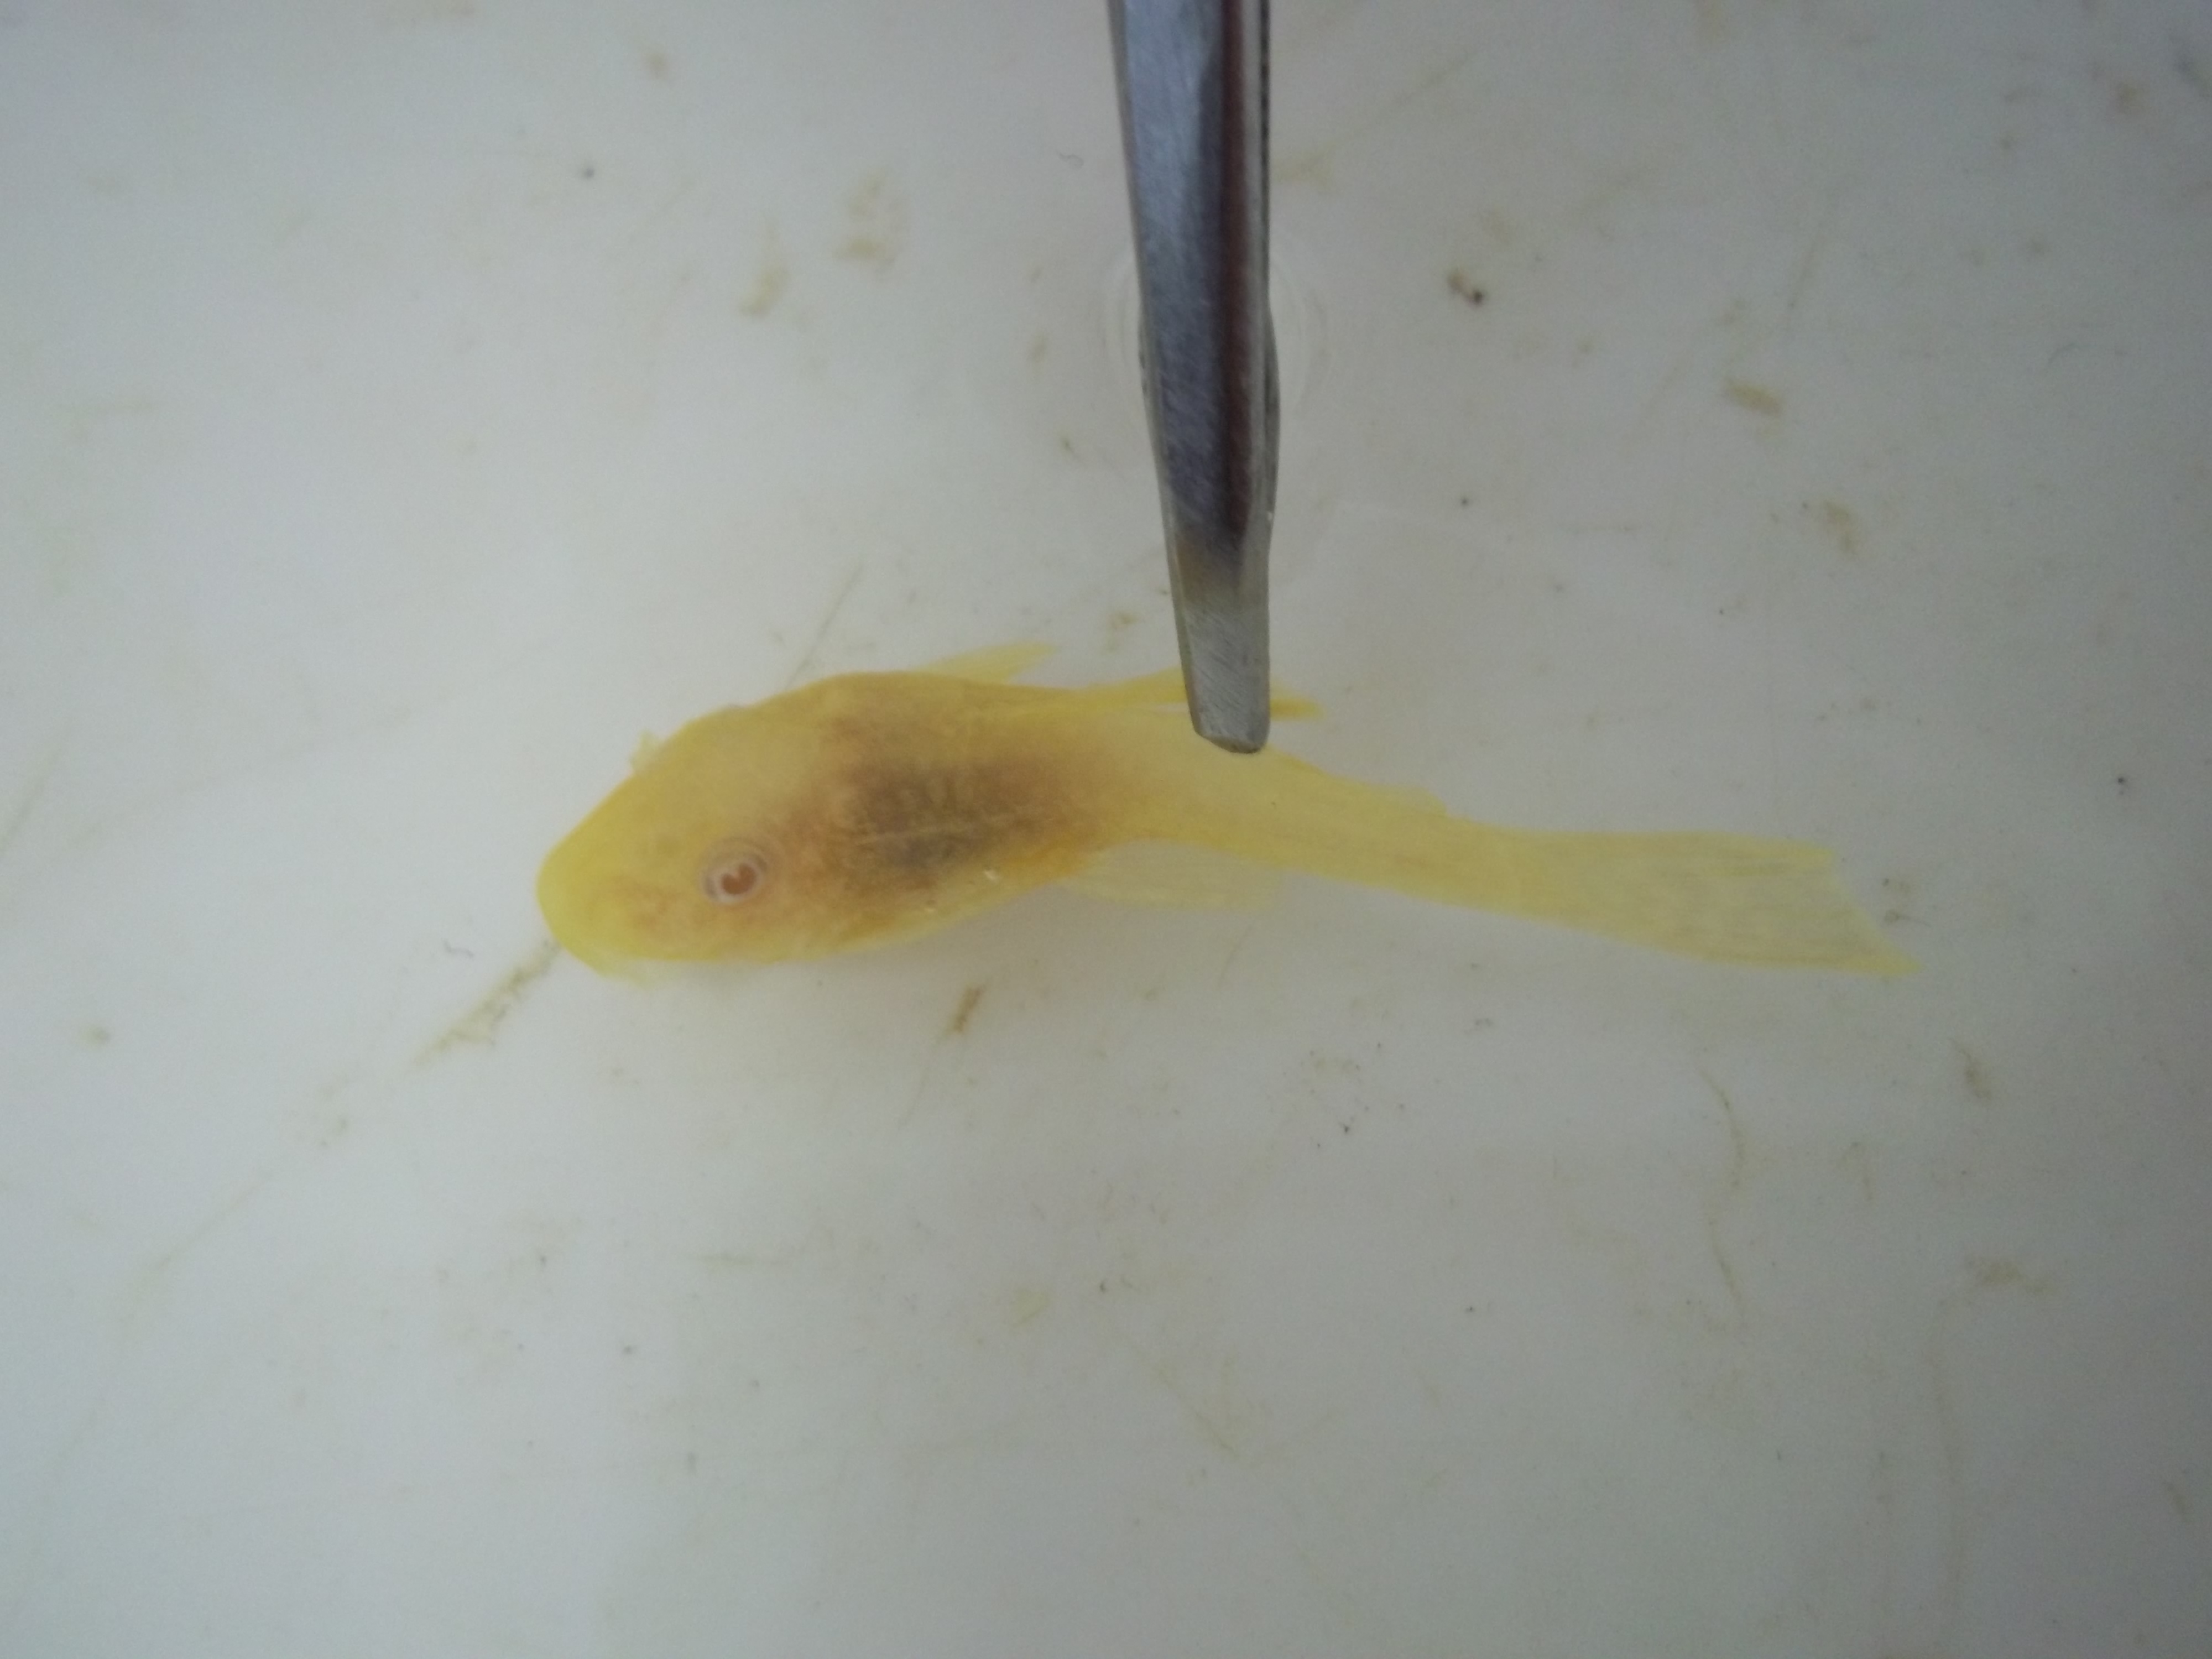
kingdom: Animalia
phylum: Chordata
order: Siluriformes
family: Loricariidae
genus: Ancistrus
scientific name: Ancistrus
